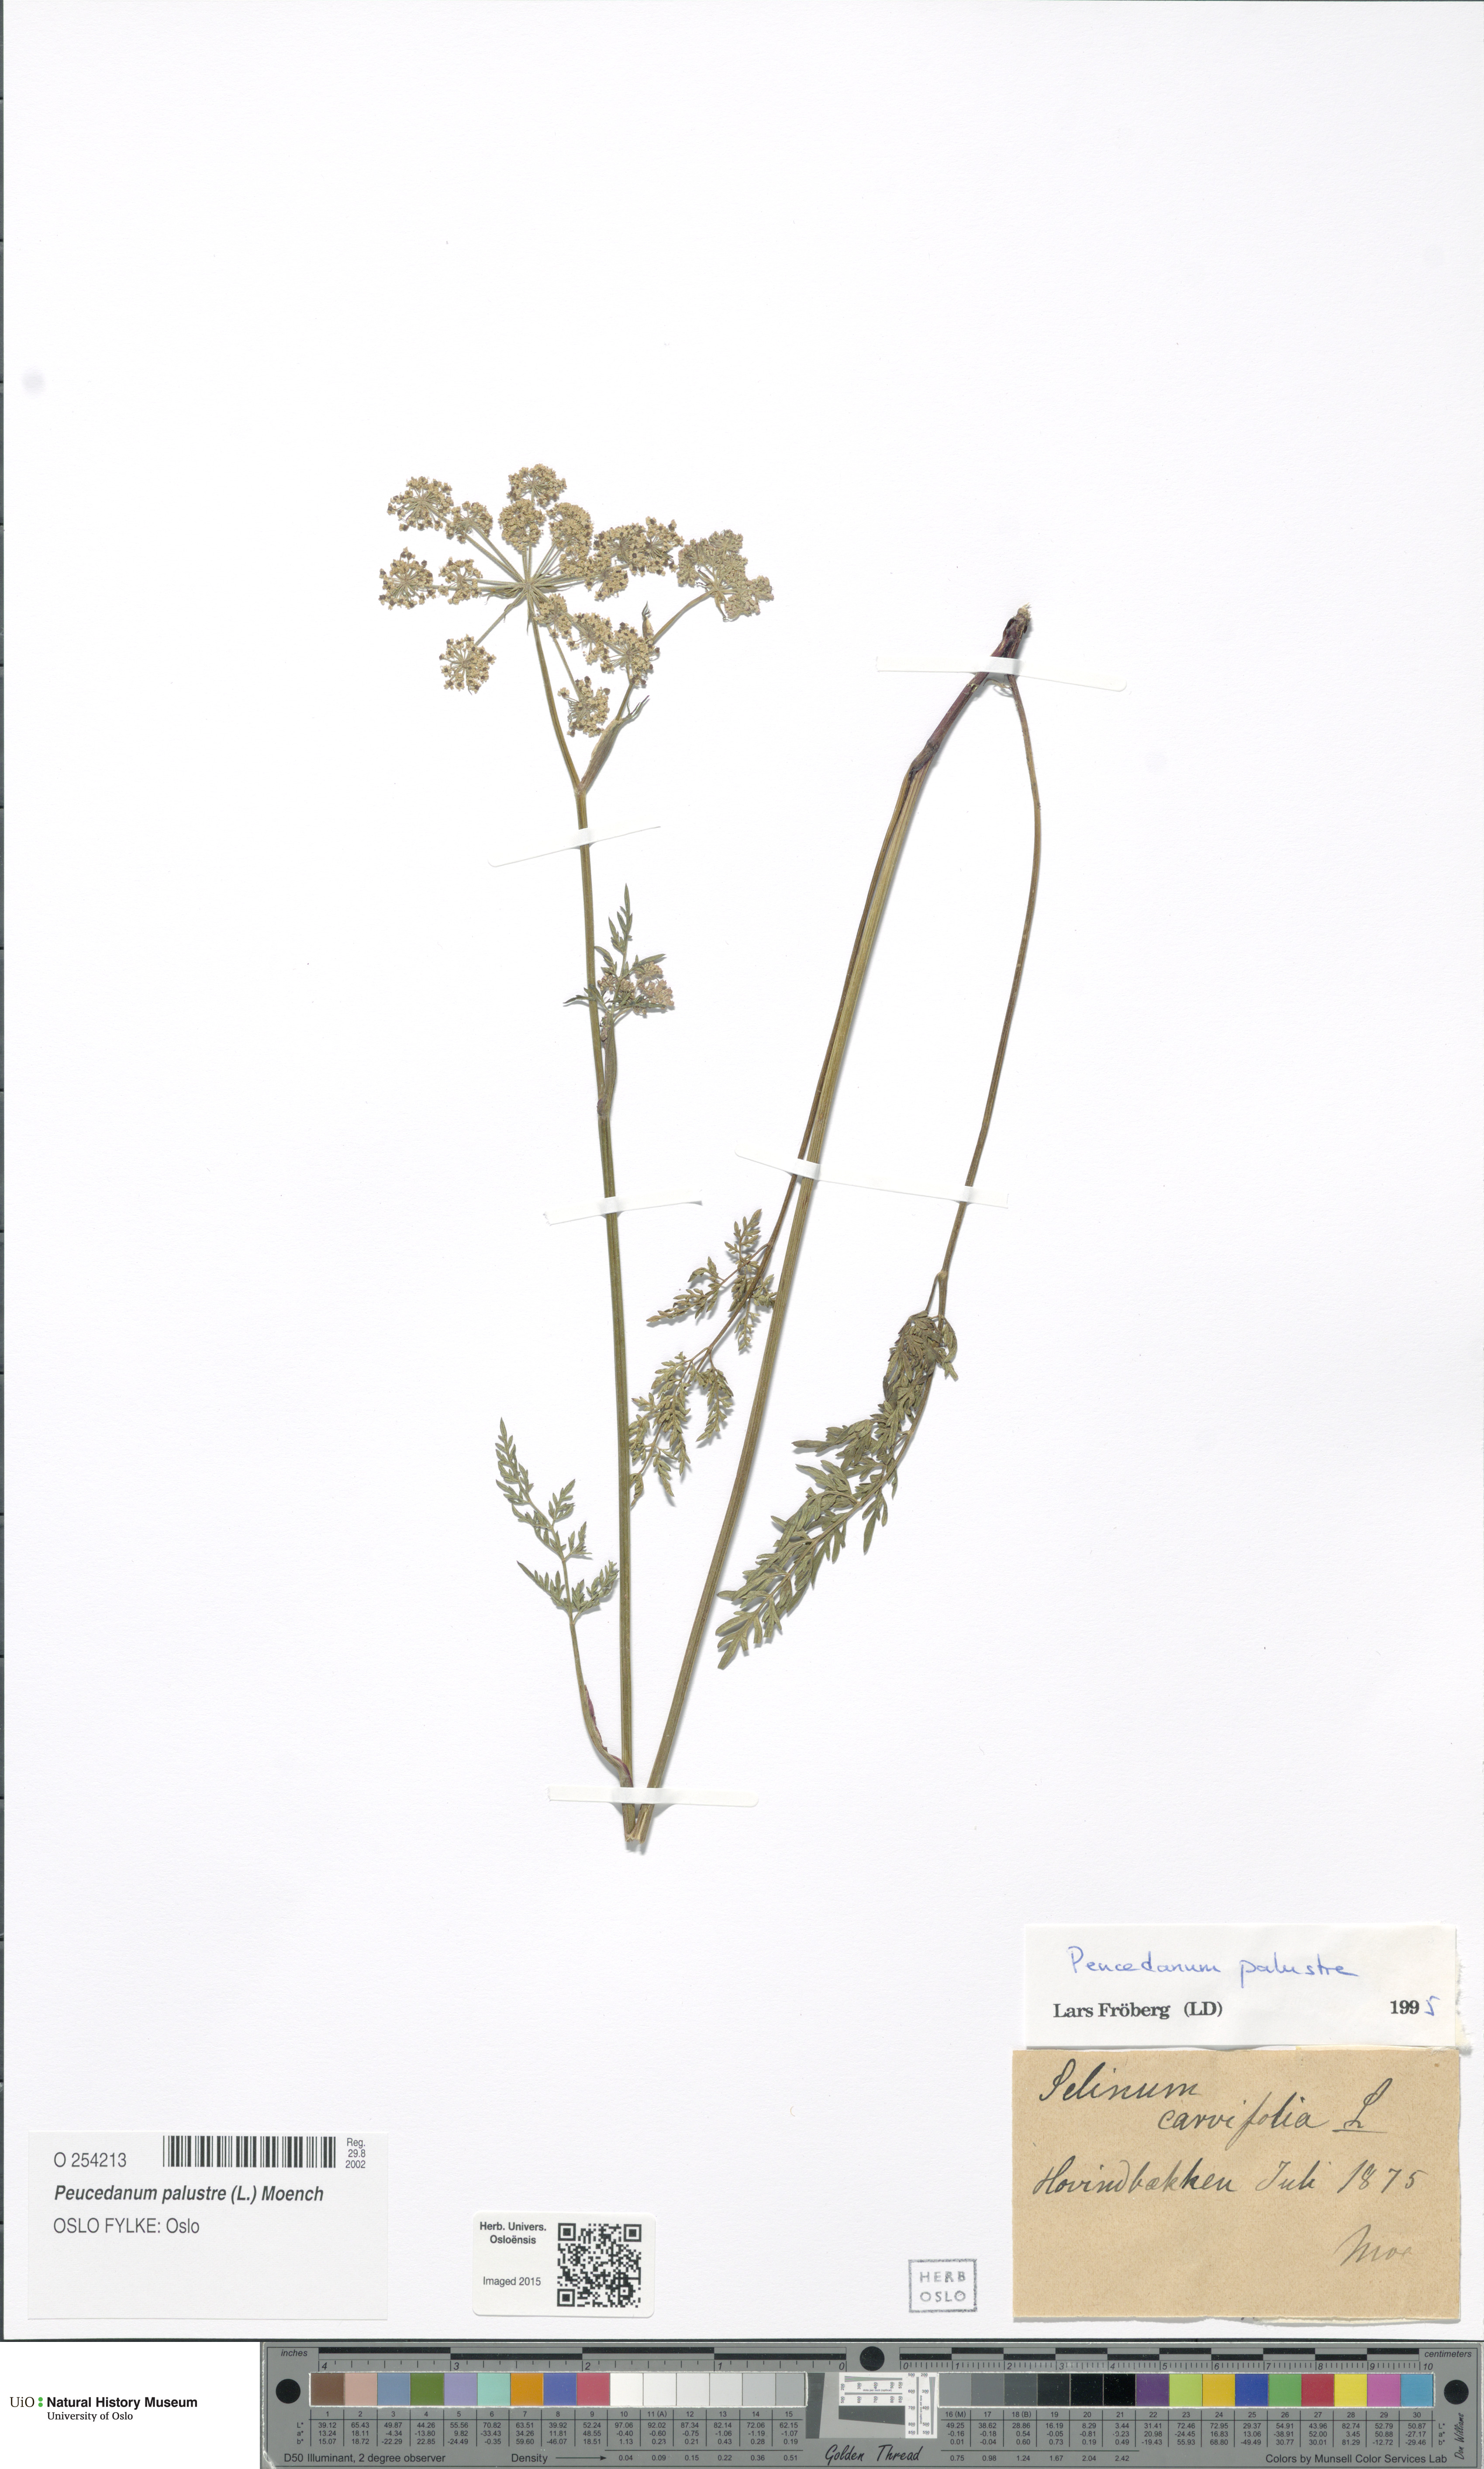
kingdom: Plantae
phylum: Tracheophyta
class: Magnoliopsida
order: Apiales
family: Apiaceae
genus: Thysselinum
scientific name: Thysselinum palustre
